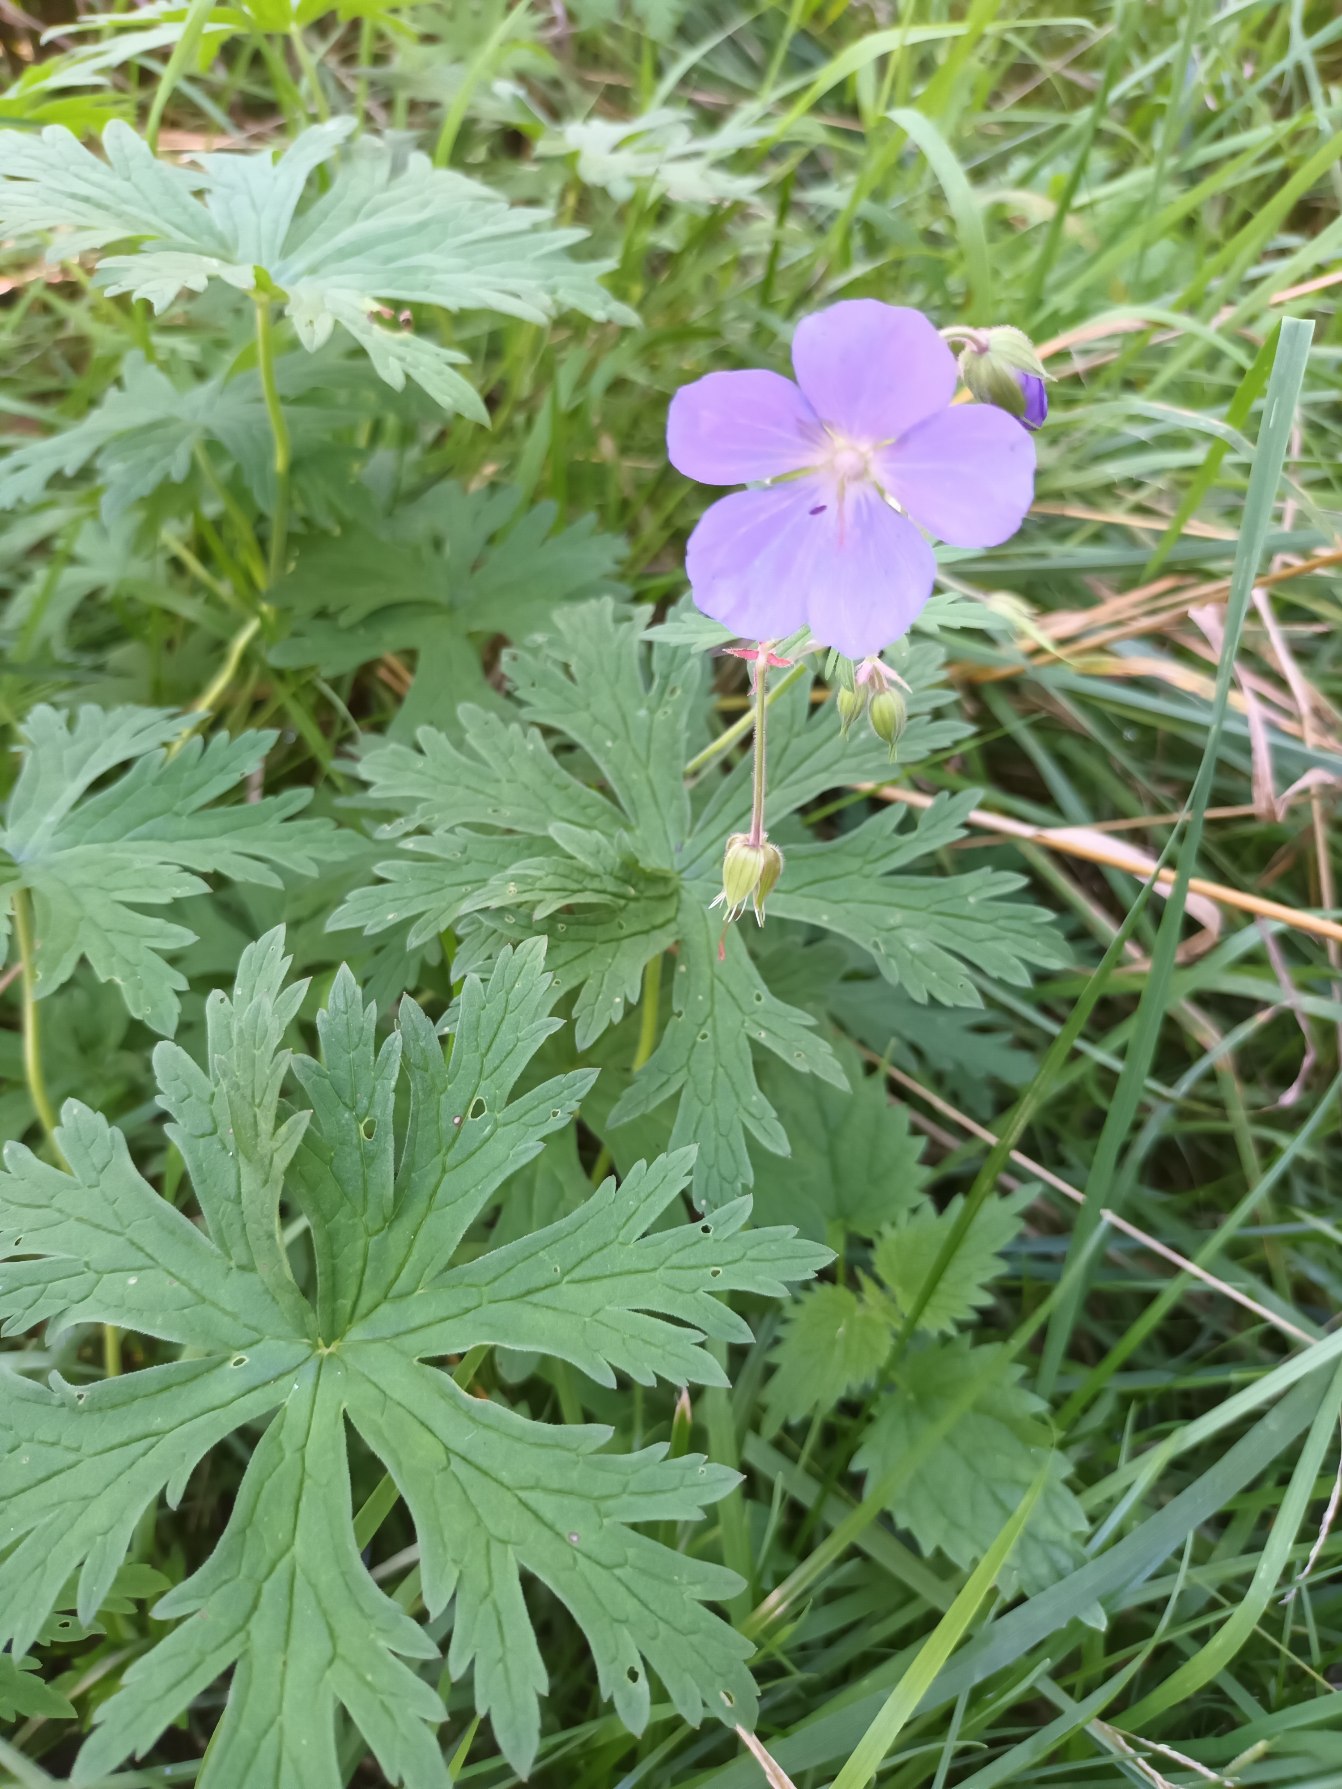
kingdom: Plantae
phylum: Tracheophyta
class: Magnoliopsida
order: Geraniales
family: Geraniaceae
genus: Geranium
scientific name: Geranium pratense
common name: Eng-storkenæb
